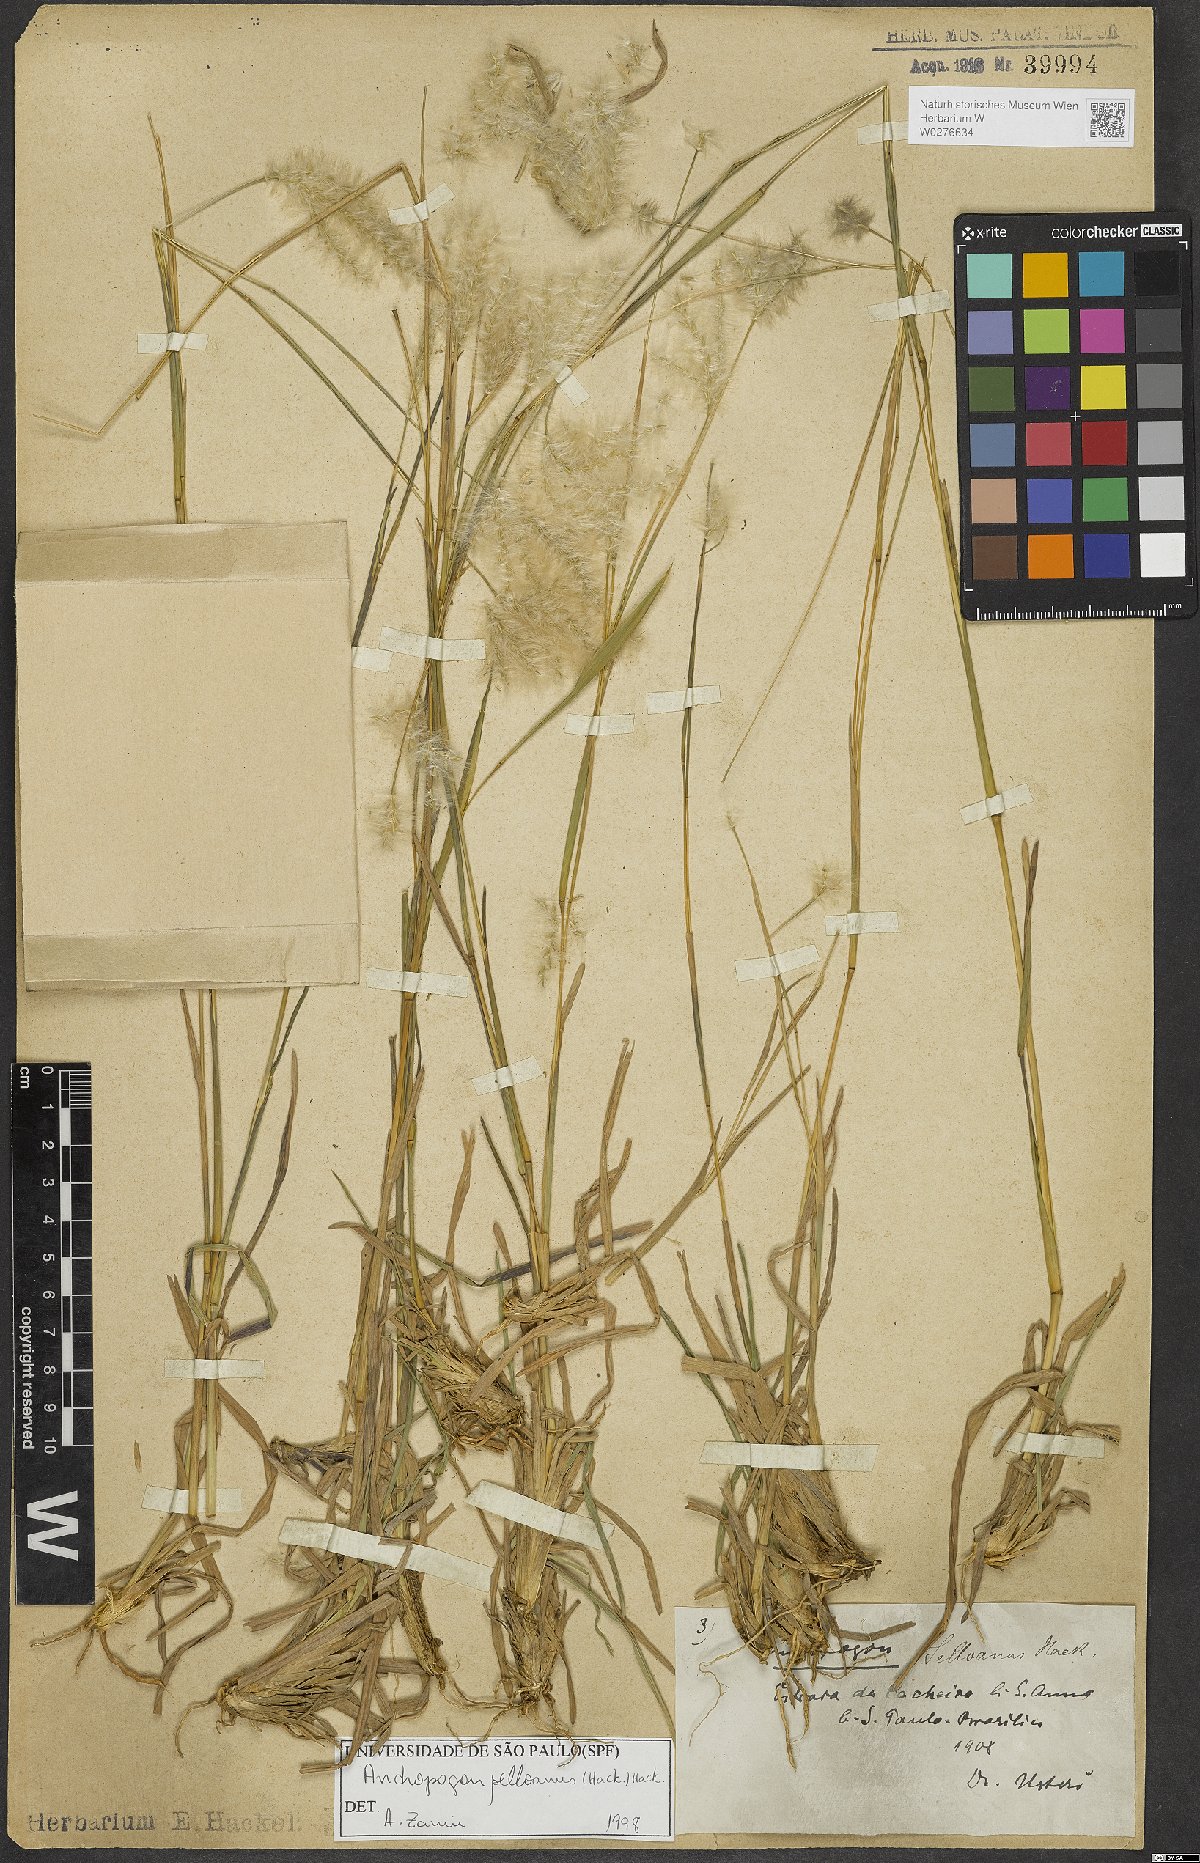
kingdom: Plantae
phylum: Tracheophyta
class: Liliopsida
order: Poales
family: Poaceae
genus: Andropogon
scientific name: Andropogon selloanus
